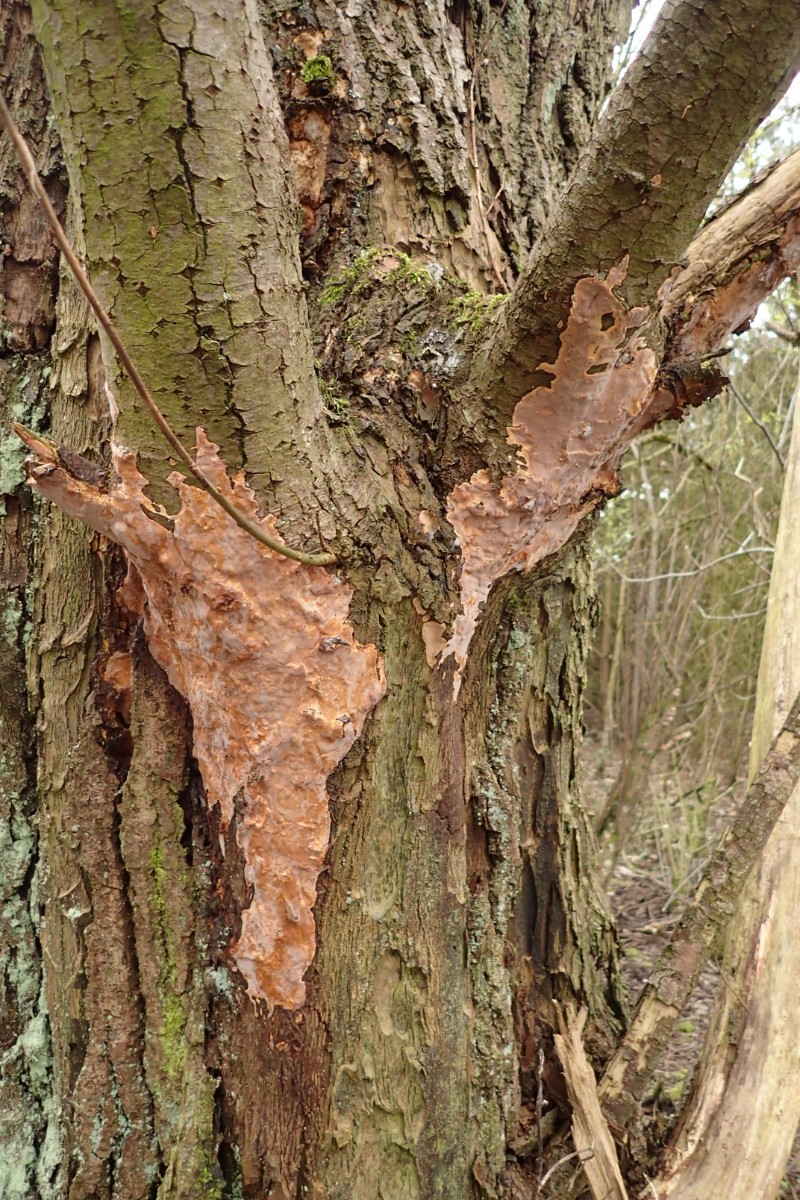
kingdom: Fungi
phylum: Basidiomycota
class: Agaricomycetes
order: Russulales
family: Peniophoraceae
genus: Scytinostroma
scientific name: Scytinostroma hemidichophyticum
